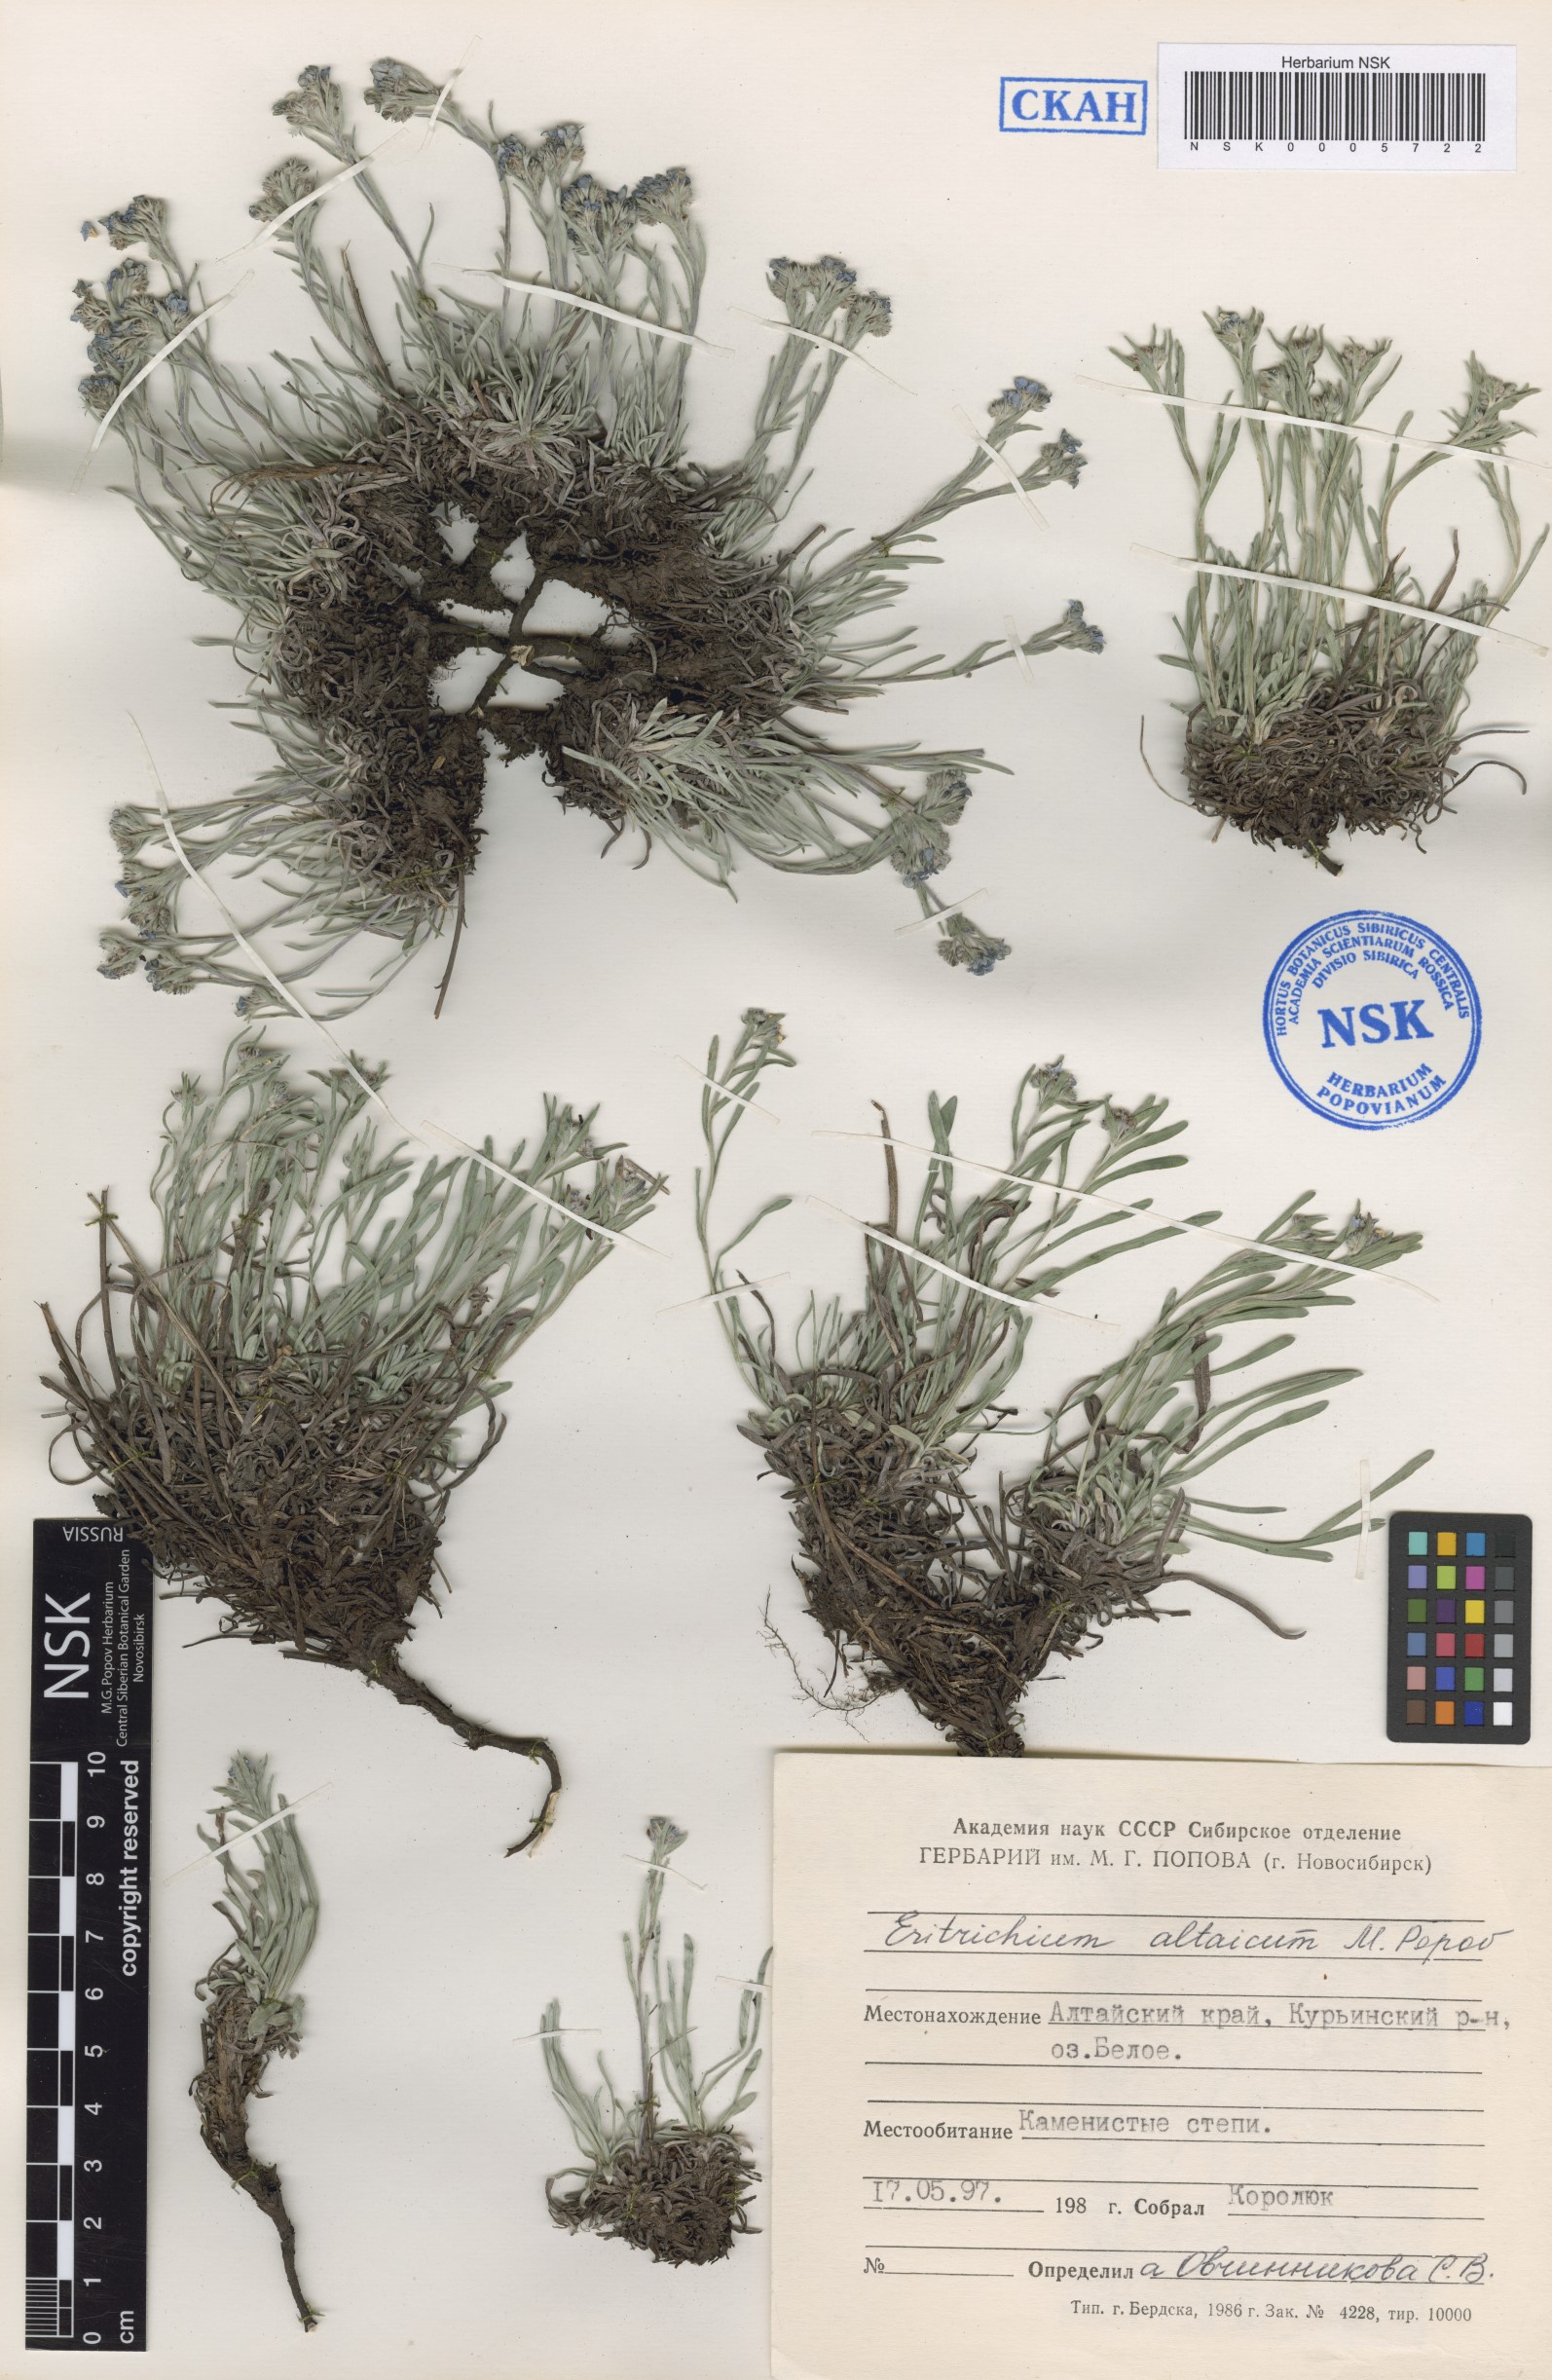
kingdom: Plantae
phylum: Tracheophyta
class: Magnoliopsida
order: Boraginales
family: Boraginaceae
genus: Eritrichium
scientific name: Eritrichium pauciflorum
